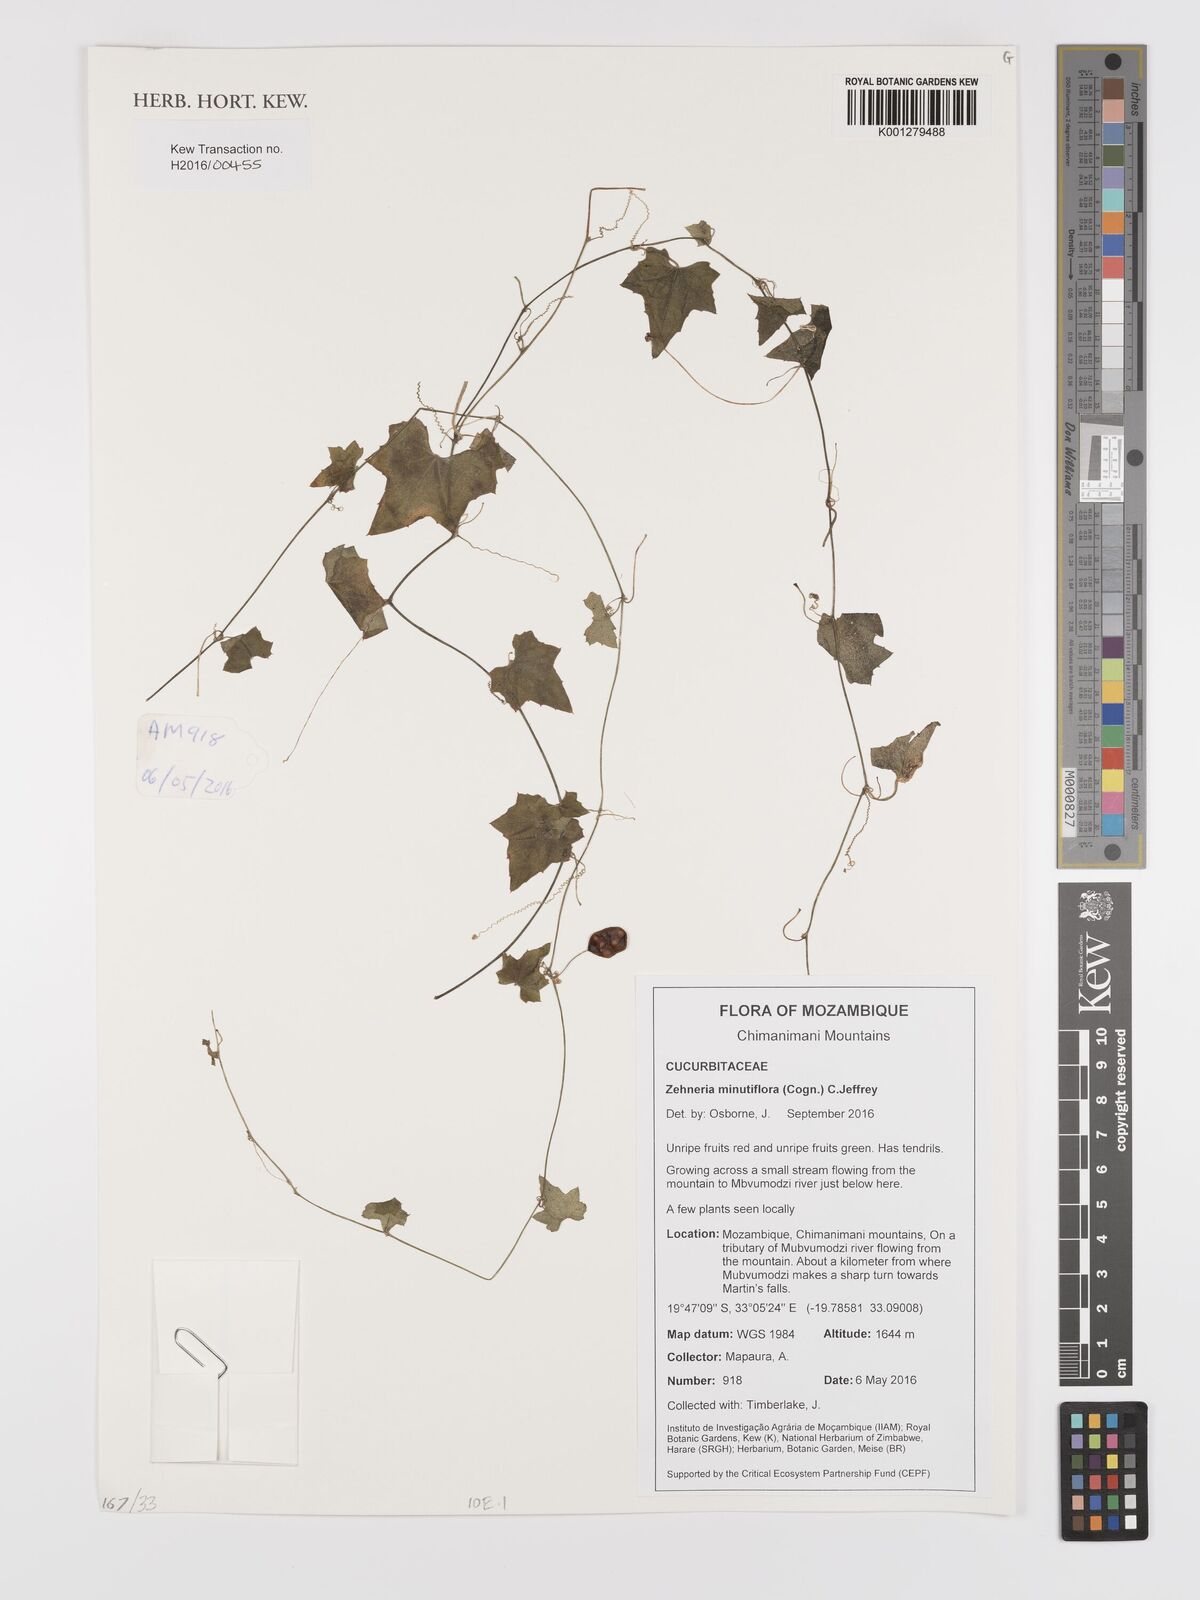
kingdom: Plantae
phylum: Tracheophyta
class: Magnoliopsida
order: Cucurbitales
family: Cucurbitaceae
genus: Zehneria
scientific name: Zehneria minutiflora
